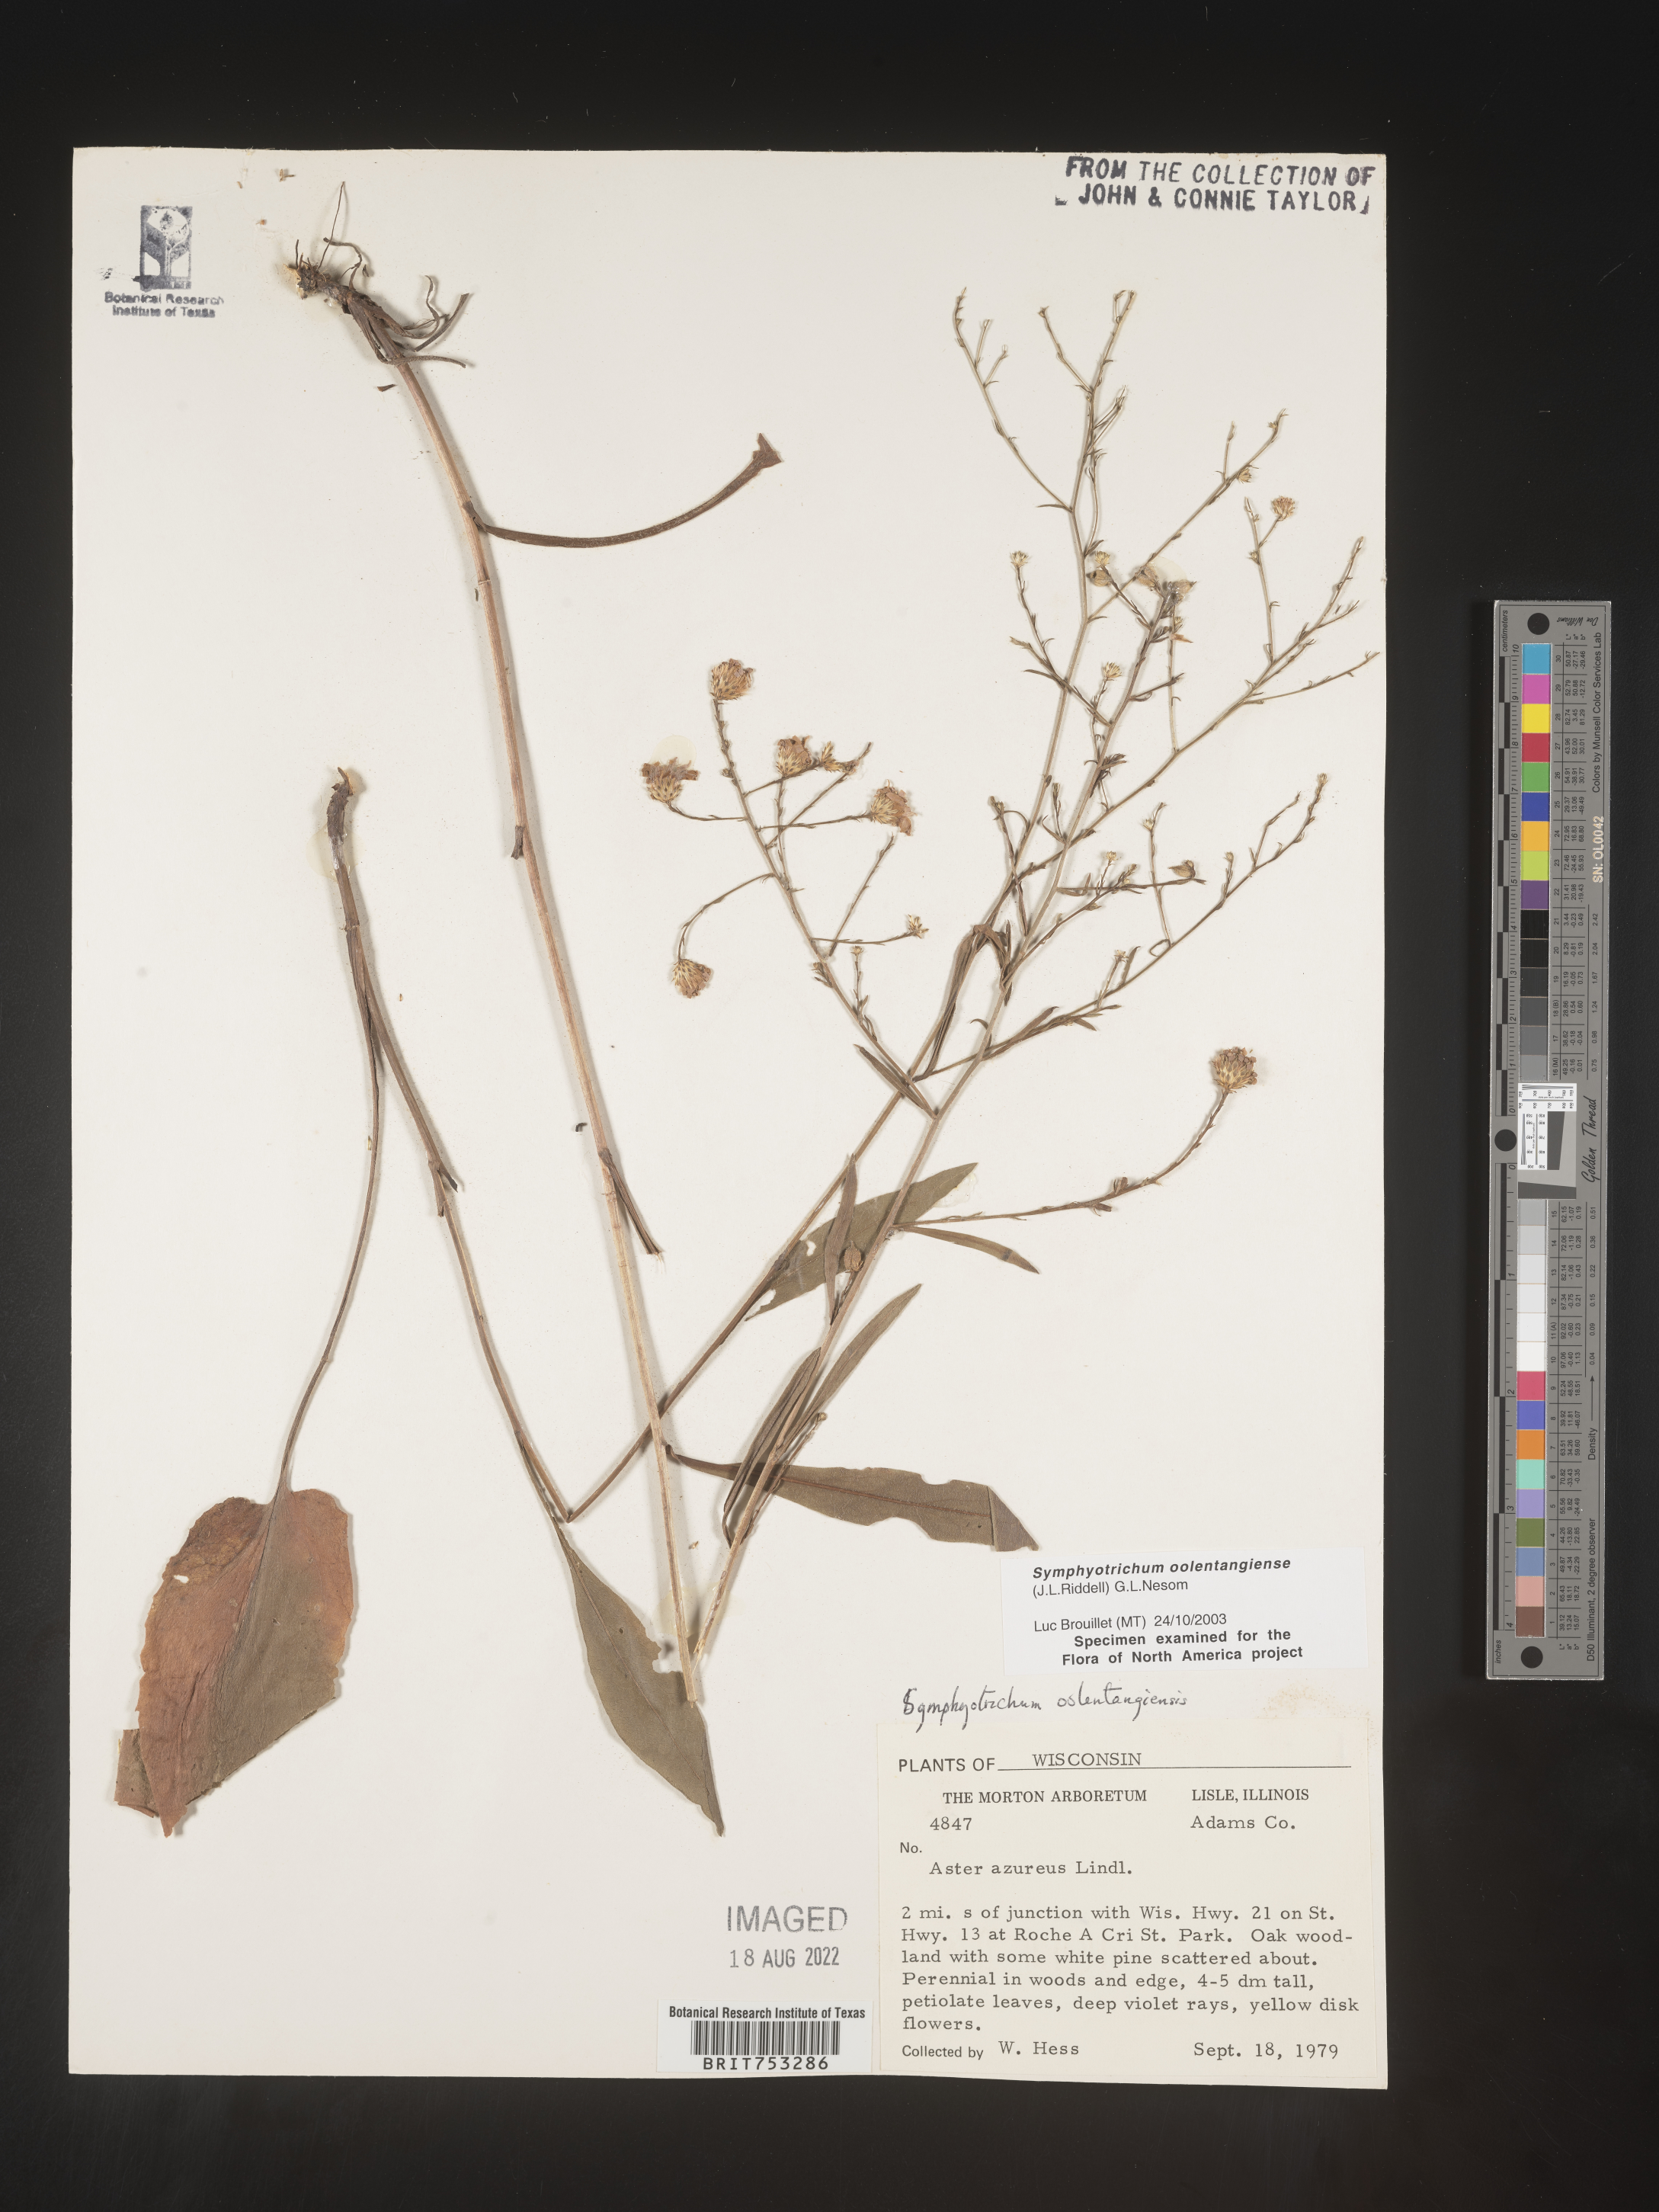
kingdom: Plantae
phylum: Tracheophyta
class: Magnoliopsida
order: Asterales
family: Asteraceae
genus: Symphyotrichum
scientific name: Symphyotrichum oolentangiense
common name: Azure aster
